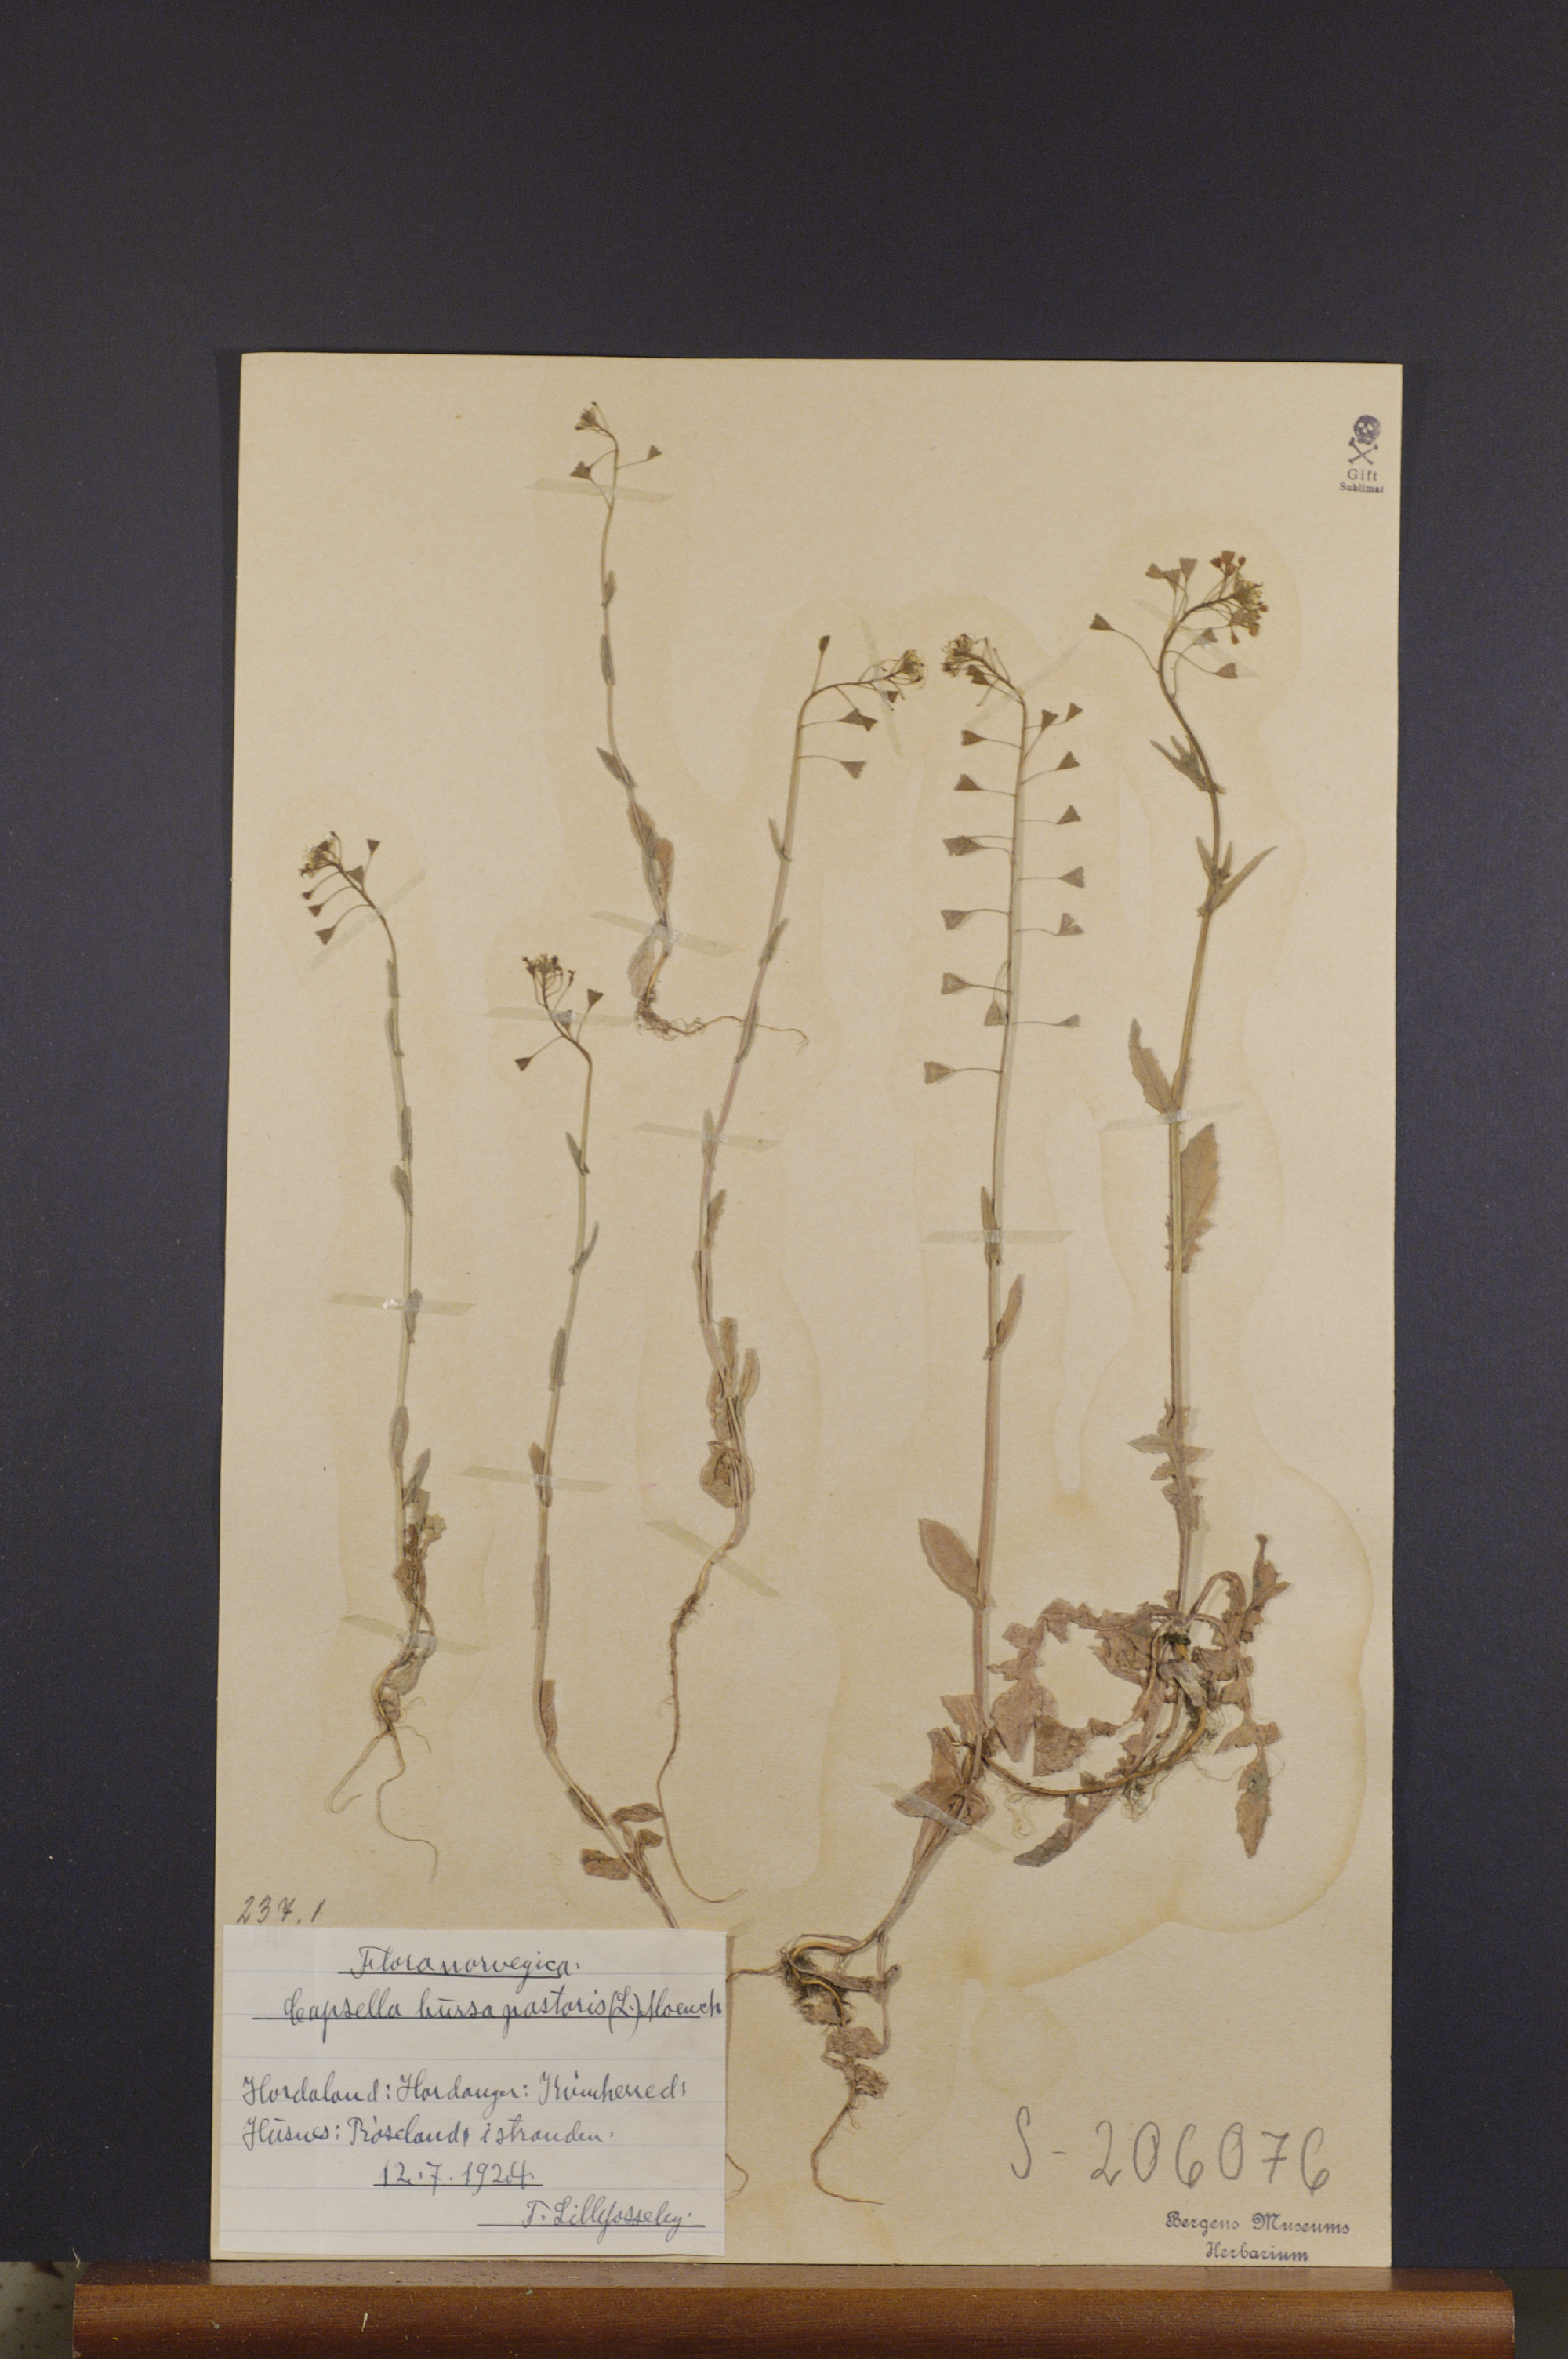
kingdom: Plantae
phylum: Tracheophyta
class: Magnoliopsida
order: Brassicales
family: Brassicaceae
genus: Capsella
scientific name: Capsella bursa-pastoris
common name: Shepherd's purse
